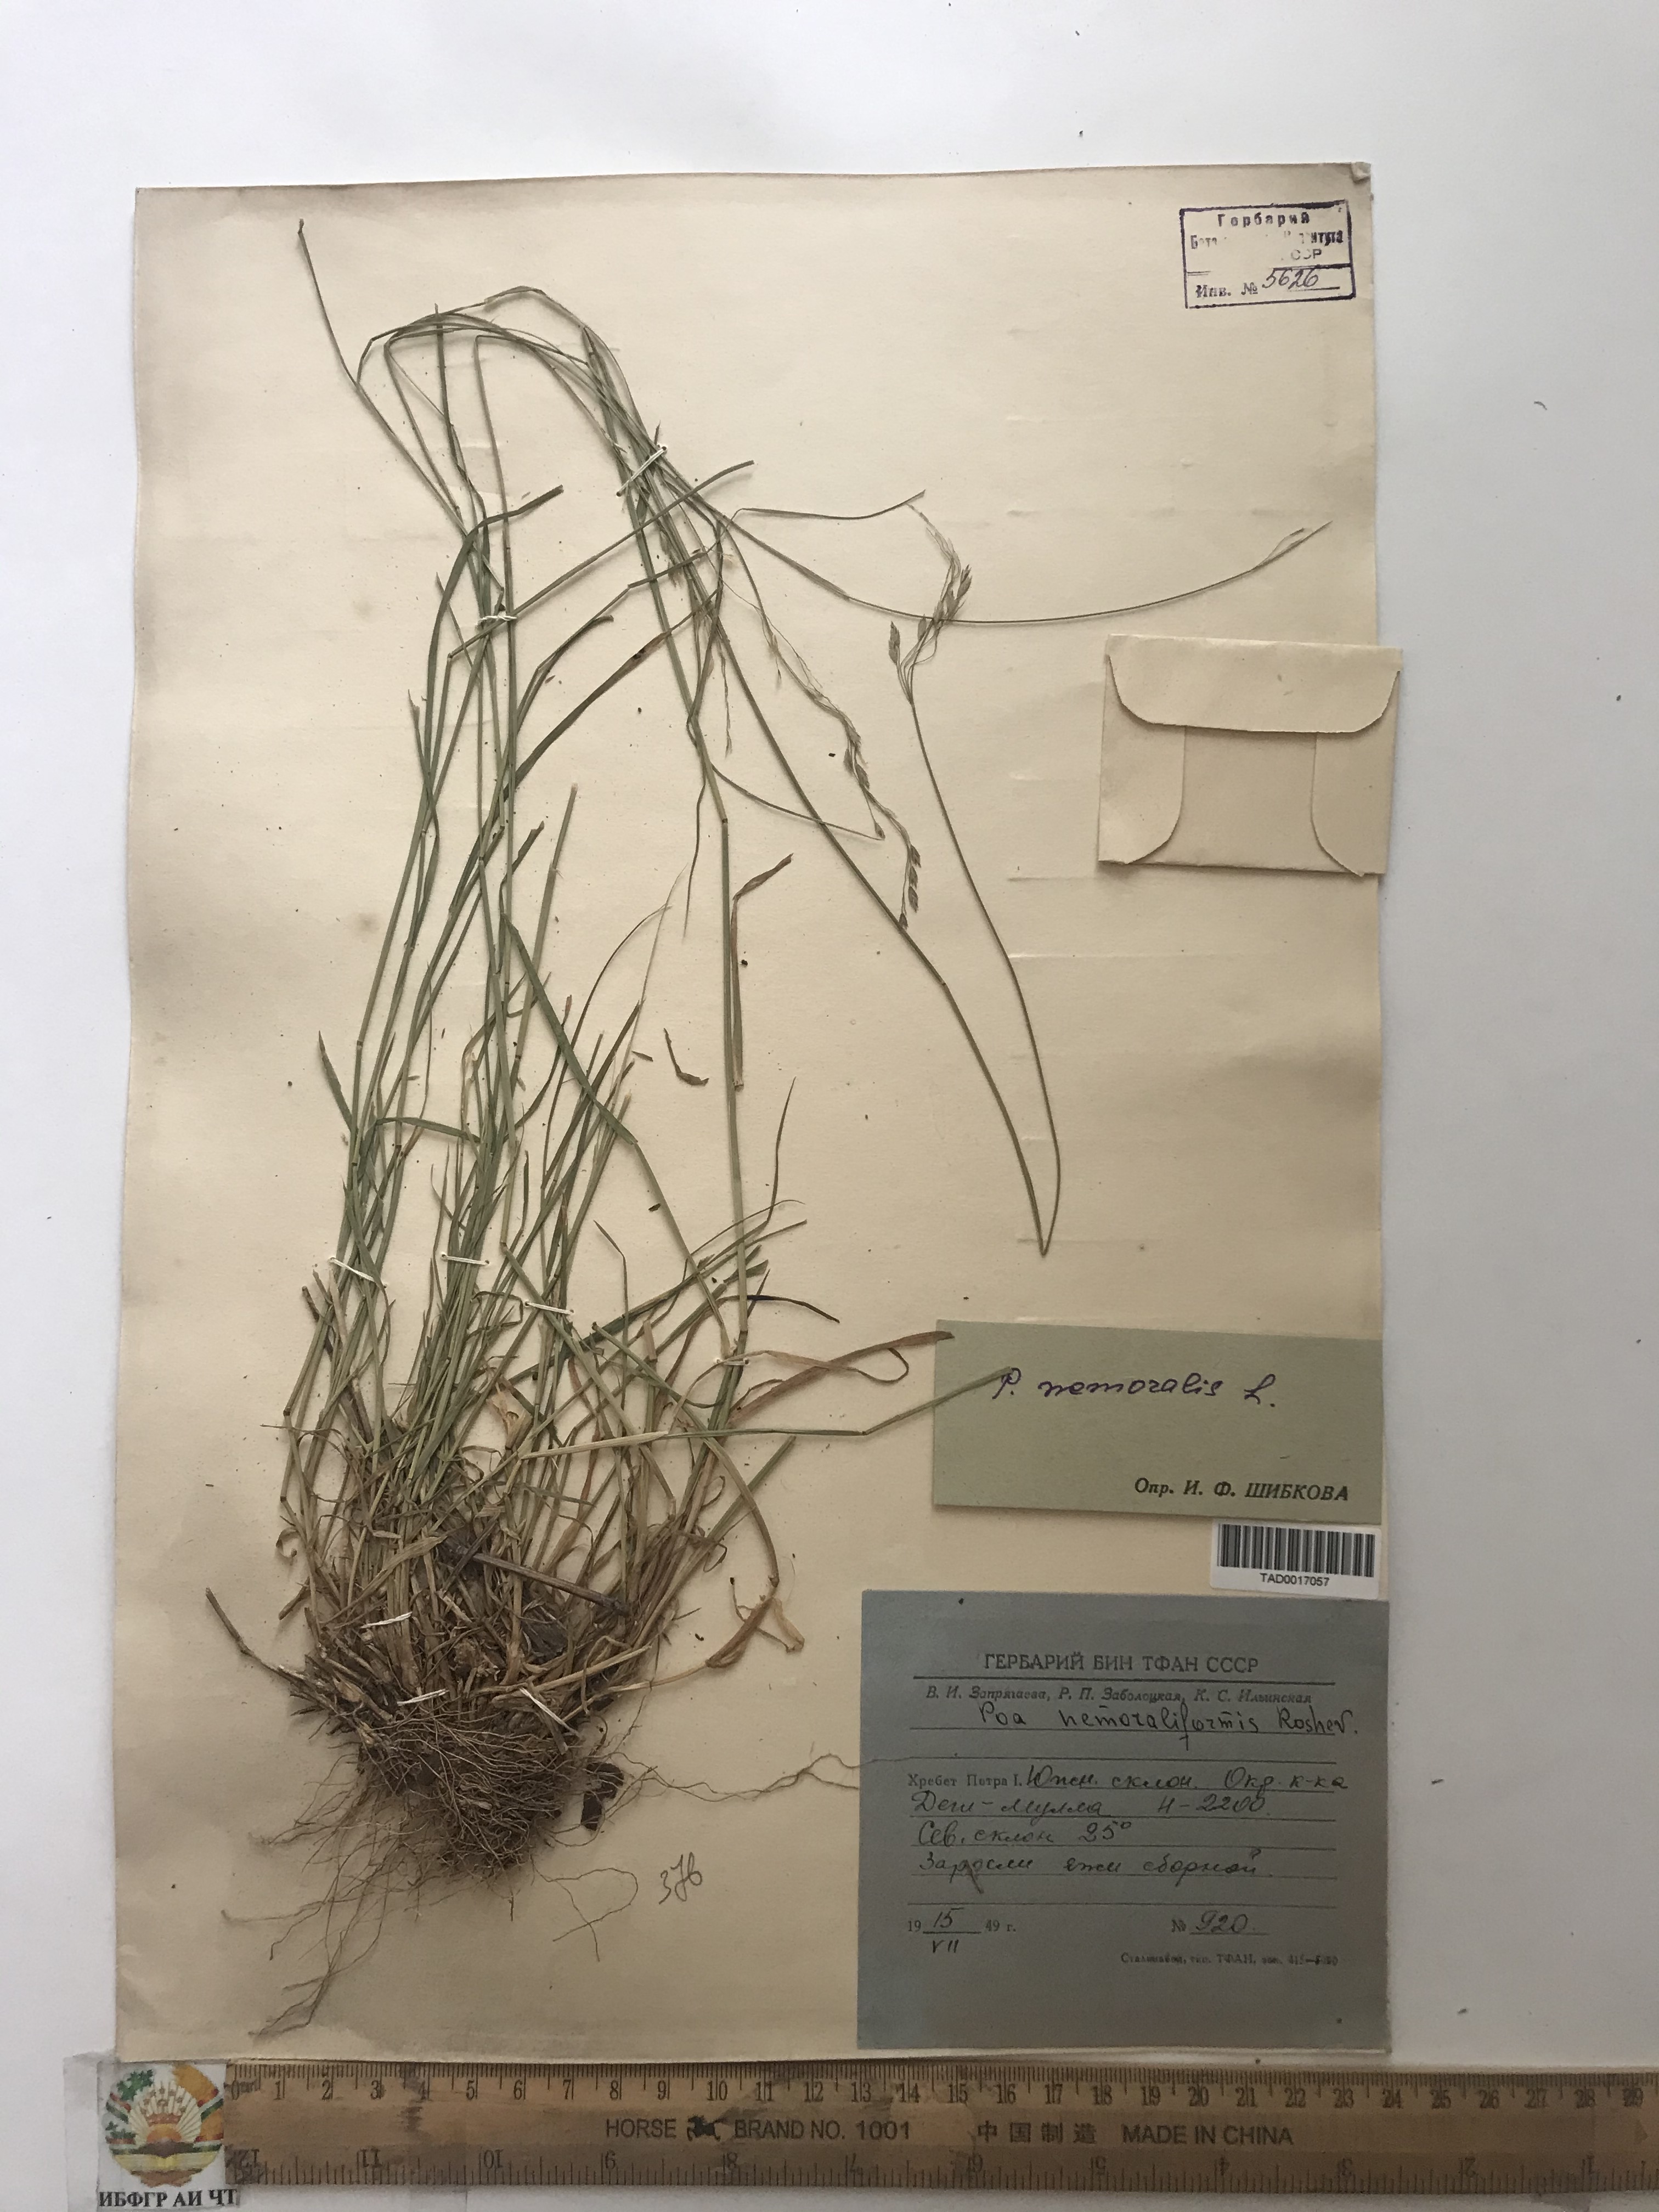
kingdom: Plantae
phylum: Tracheophyta
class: Liliopsida
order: Poales
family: Poaceae
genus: Poa
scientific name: Poa nemoralis
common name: Wood bluegrass
